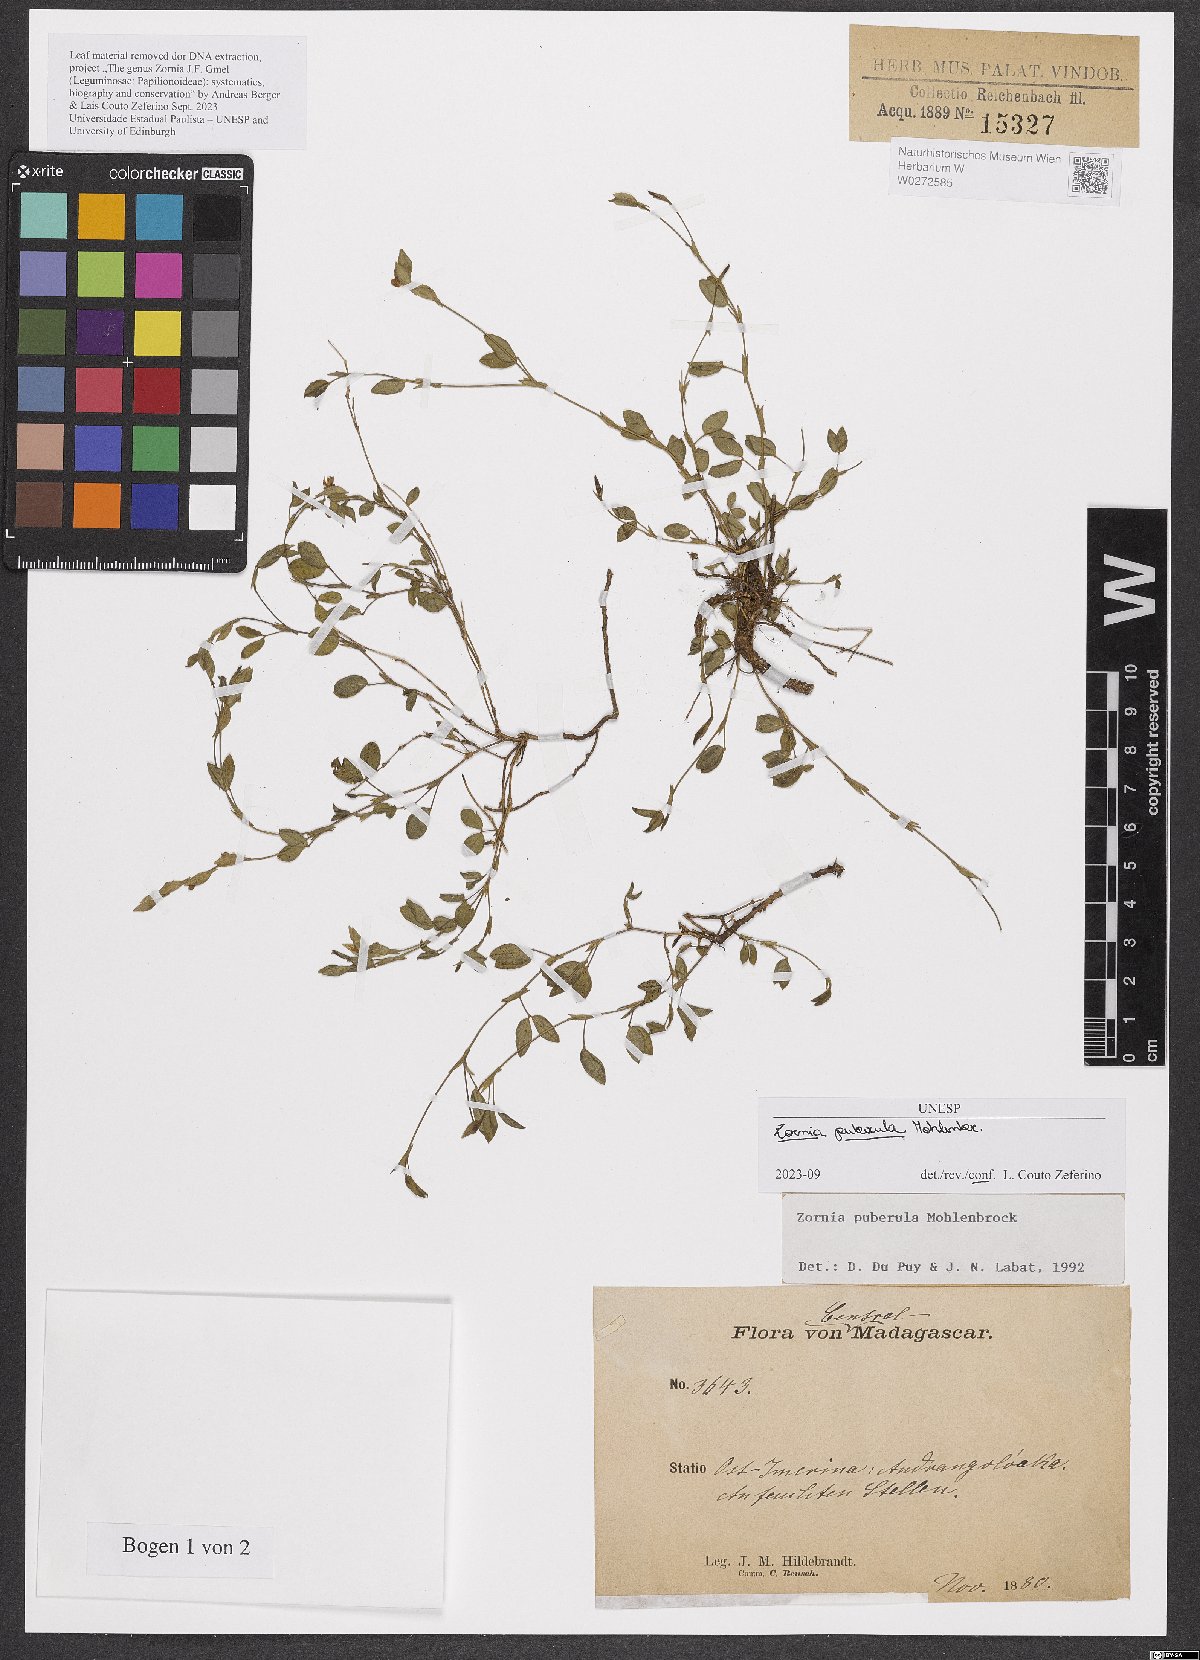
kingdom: Plantae
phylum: Tracheophyta
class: Magnoliopsida
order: Fabales
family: Fabaceae
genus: Zornia
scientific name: Zornia puberula
